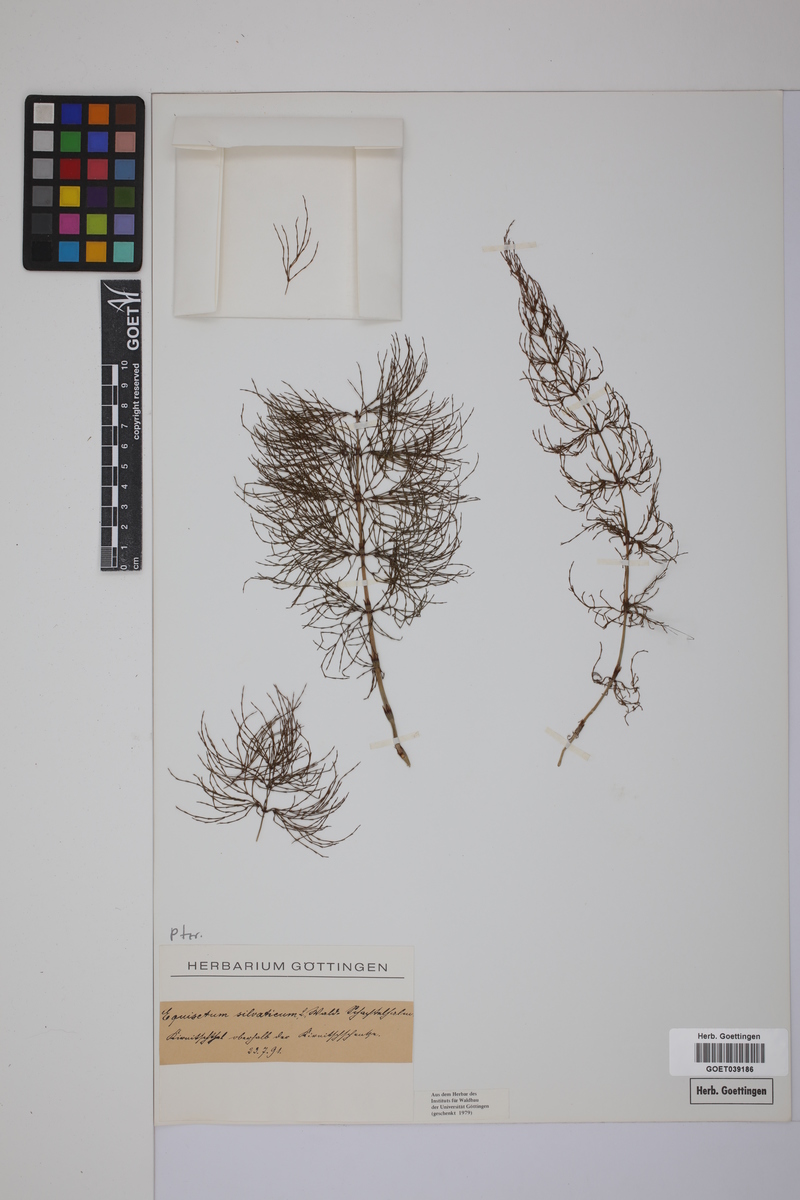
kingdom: Plantae
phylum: Tracheophyta
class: Polypodiopsida
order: Equisetales
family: Equisetaceae
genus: Equisetum
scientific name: Equisetum sylvaticum
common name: Wood horsetail
